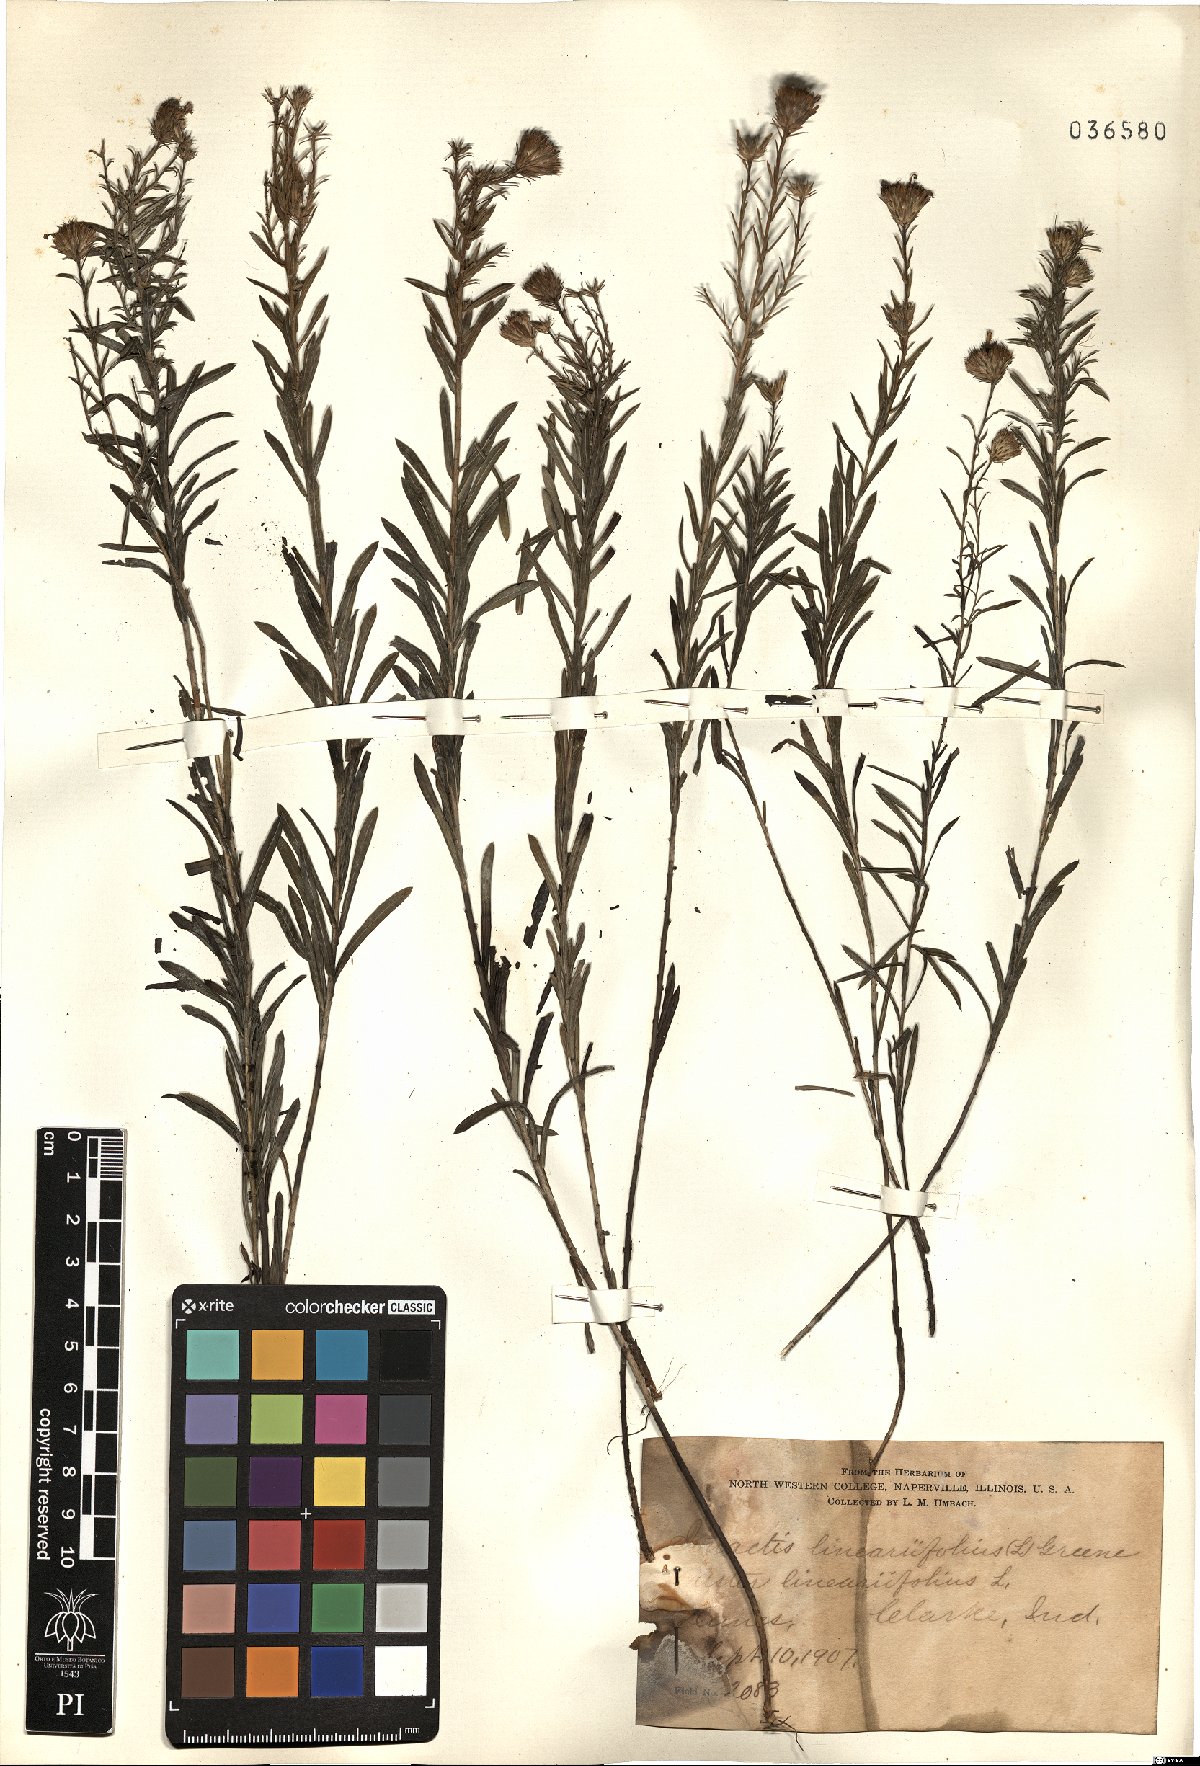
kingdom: Plantae
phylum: Tracheophyta
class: Magnoliopsida
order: Asterales
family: Asteraceae
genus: Ionactis
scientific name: Ionactis linariifolia
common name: Flax-leaf aster
